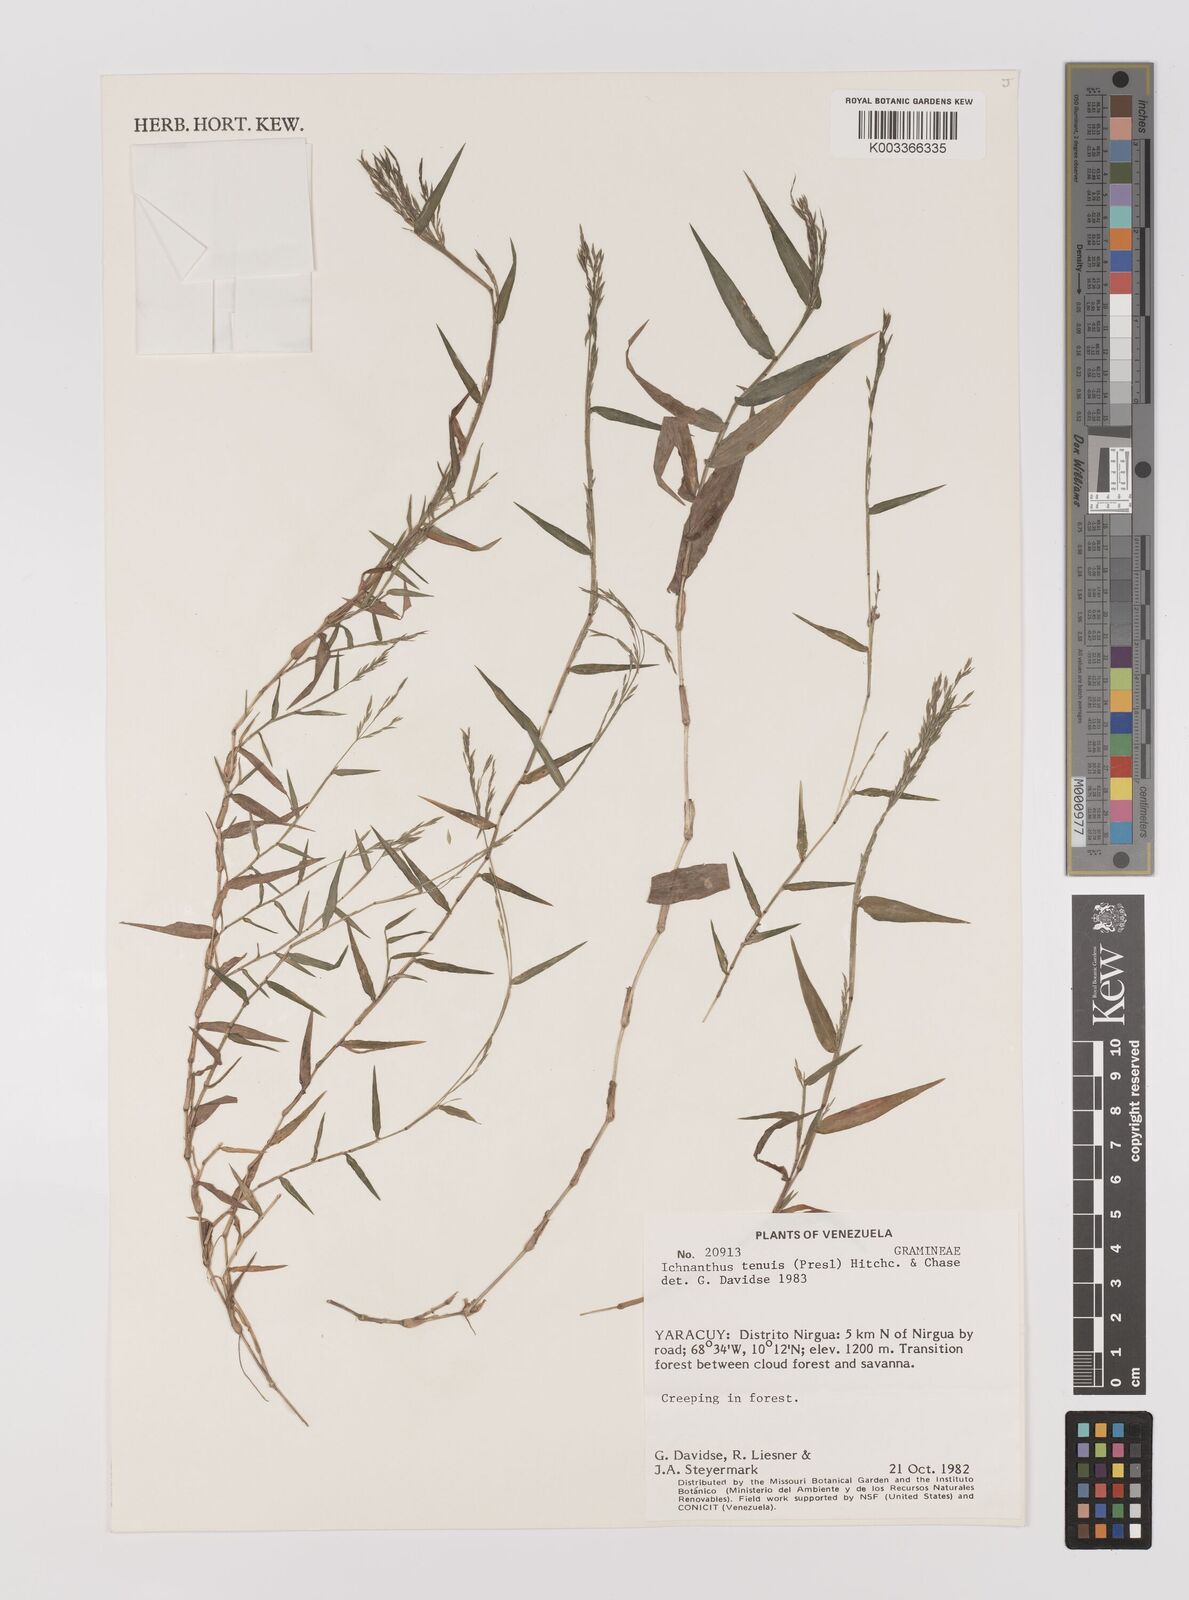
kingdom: Plantae
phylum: Tracheophyta
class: Liliopsida
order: Poales
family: Poaceae
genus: Ichnanthus
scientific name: Ichnanthus tenuis
